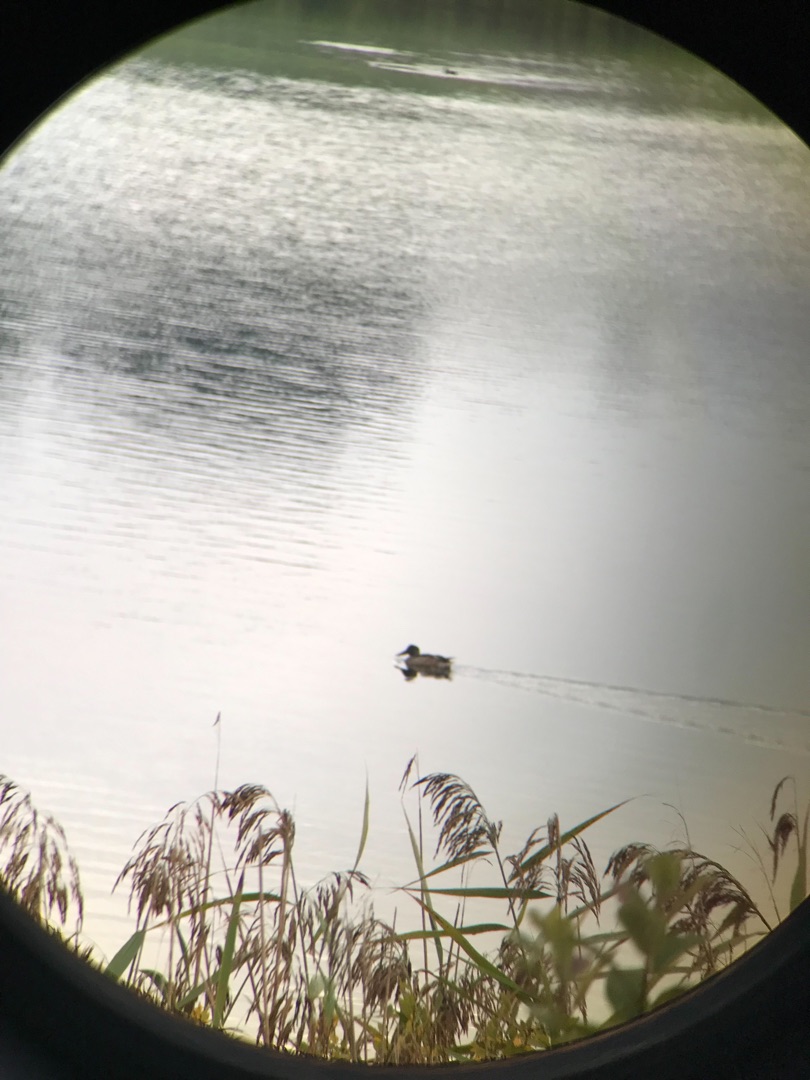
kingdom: Animalia
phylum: Chordata
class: Aves
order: Anseriformes
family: Anatidae
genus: Spatula
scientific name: Spatula clypeata
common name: Skeand
